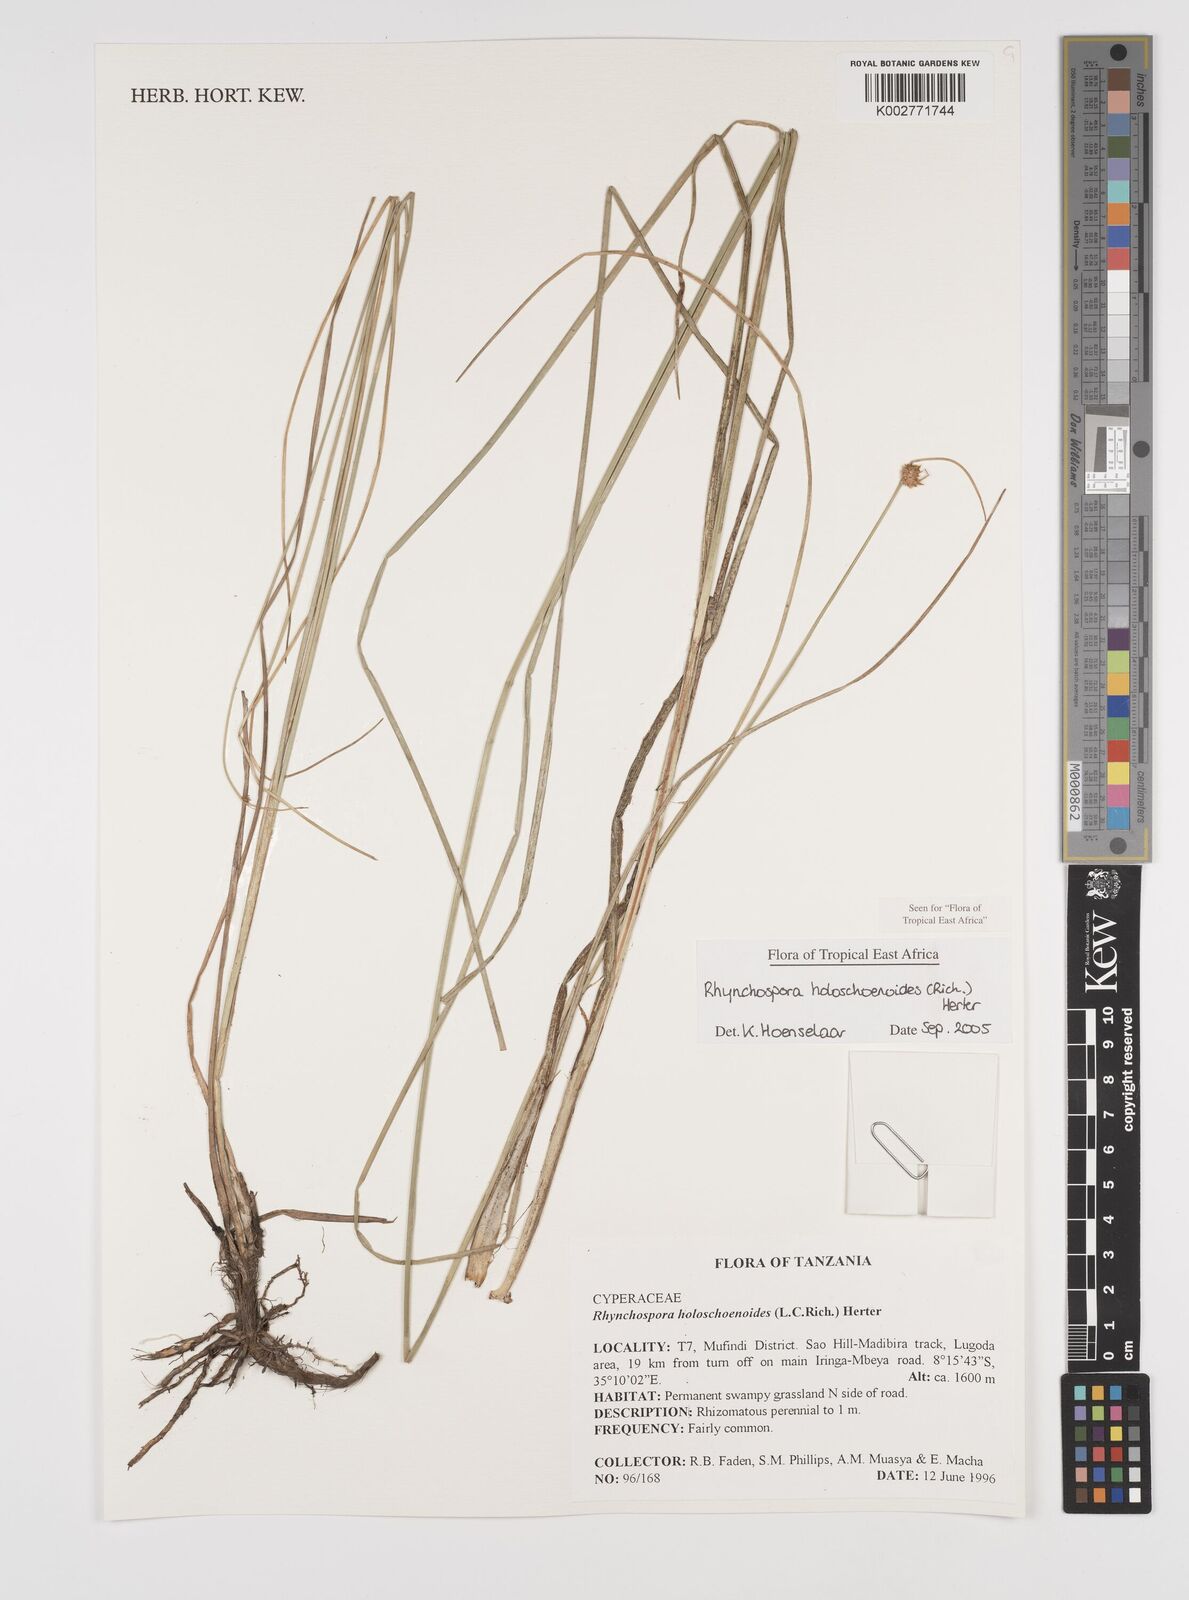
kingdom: Plantae
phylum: Tracheophyta
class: Liliopsida
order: Poales
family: Cyperaceae
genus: Rhynchospora
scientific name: Rhynchospora holoschoenoides
